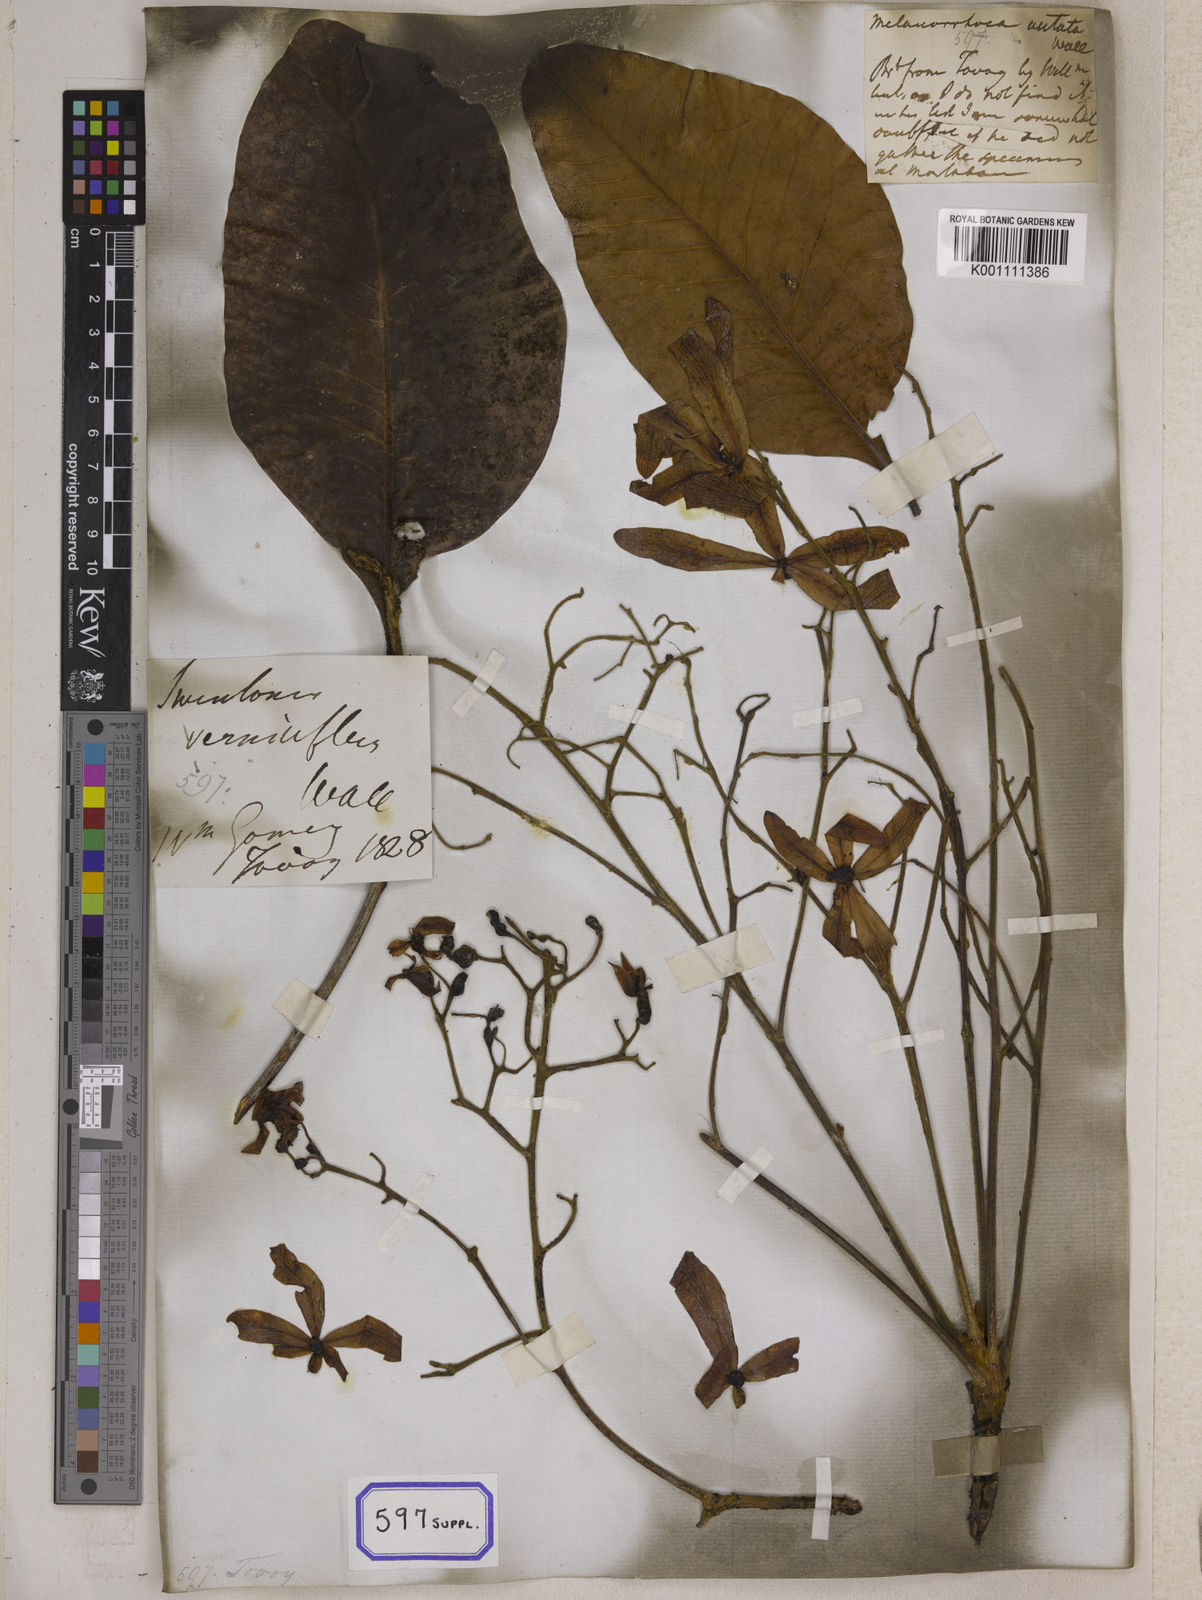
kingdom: Plantae
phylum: Tracheophyta
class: Magnoliopsida
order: Sapindales
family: Anacardiaceae
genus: Gluta
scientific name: Gluta
